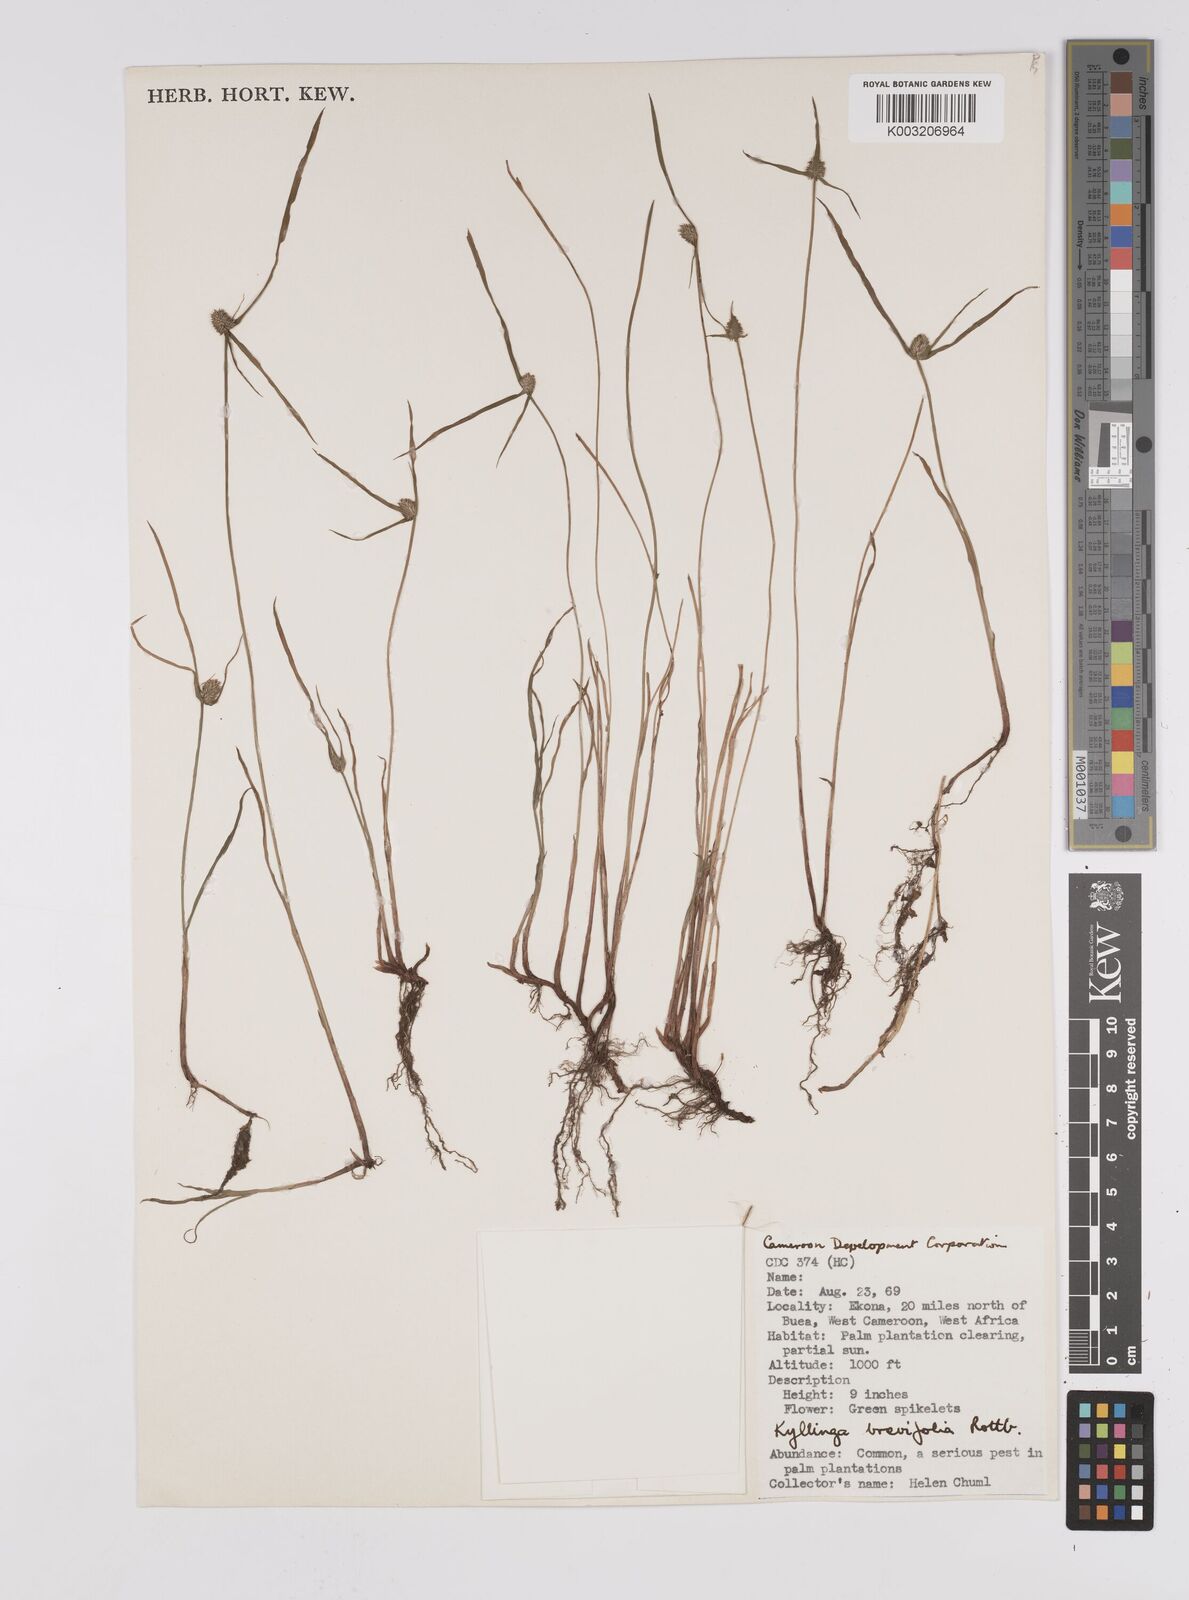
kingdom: Plantae
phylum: Tracheophyta
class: Liliopsida
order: Poales
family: Cyperaceae
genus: Cyperus
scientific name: Cyperus brevifolius
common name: Globe kyllinga
